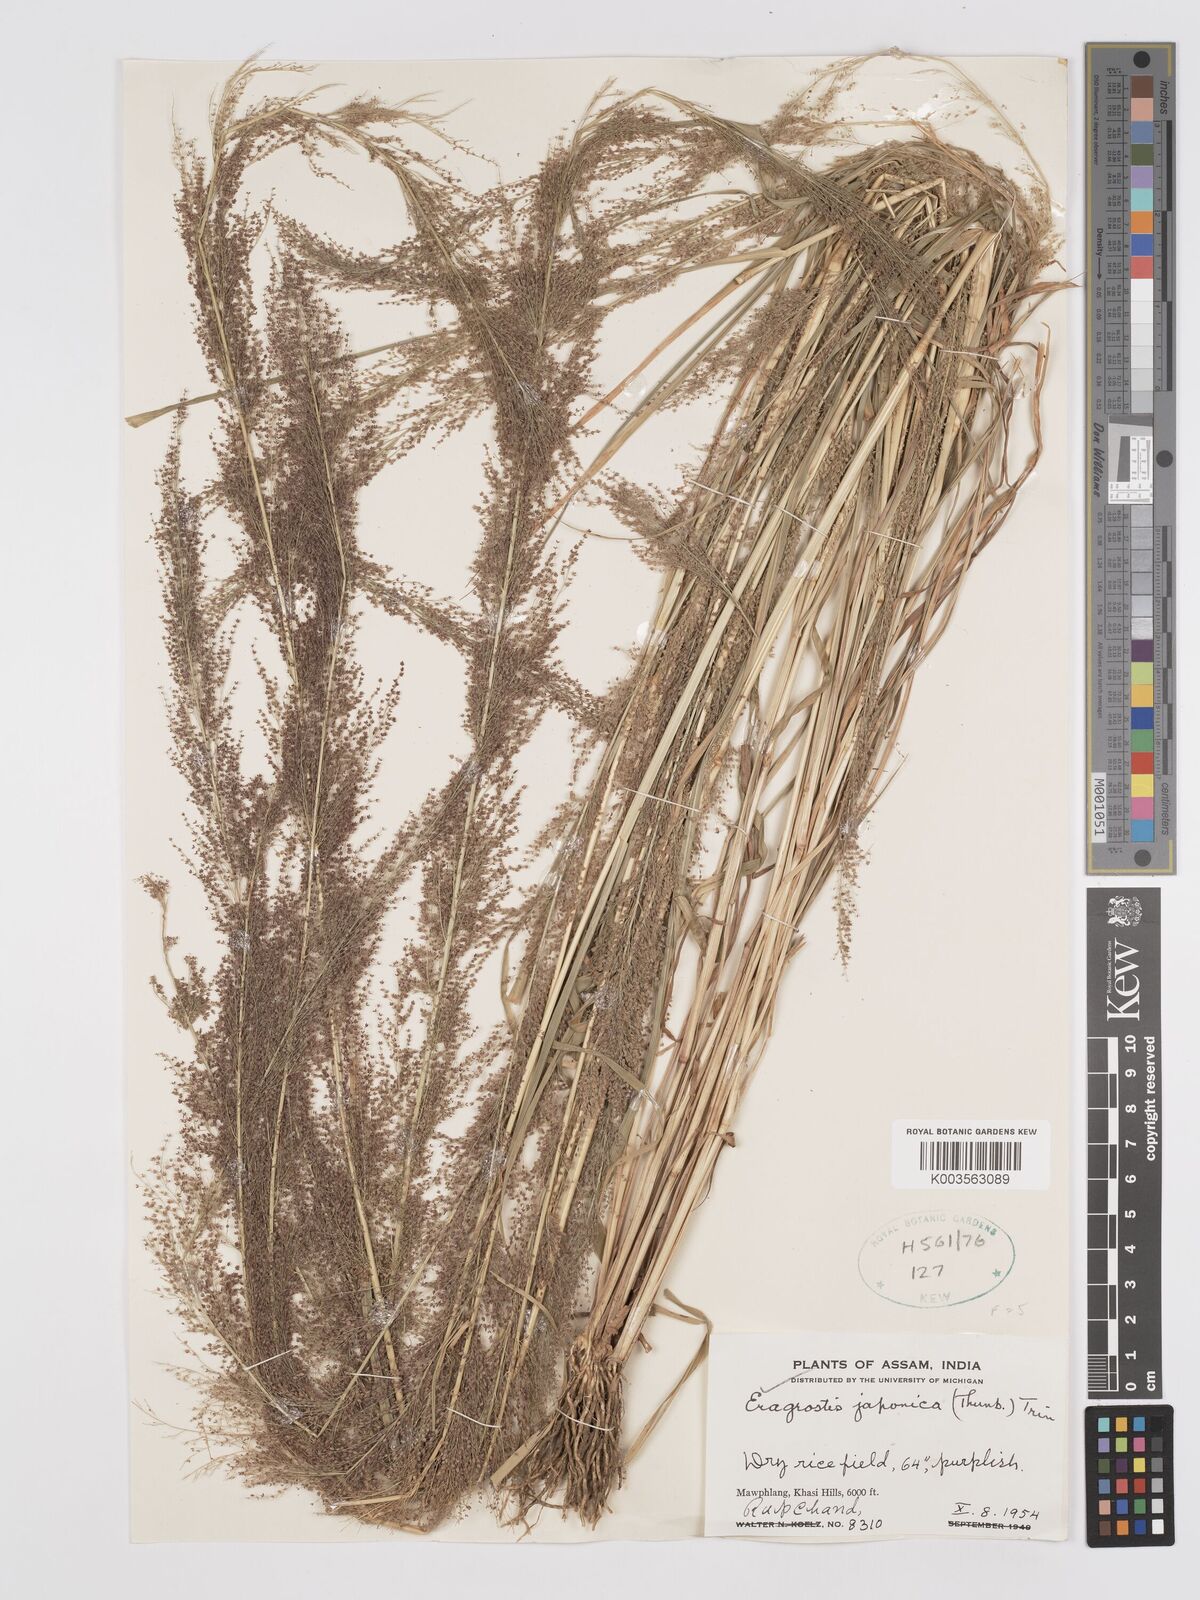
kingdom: Plantae
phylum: Tracheophyta
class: Liliopsida
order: Poales
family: Poaceae
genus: Eragrostis
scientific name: Eragrostis japonica
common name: Pond lovegrass
